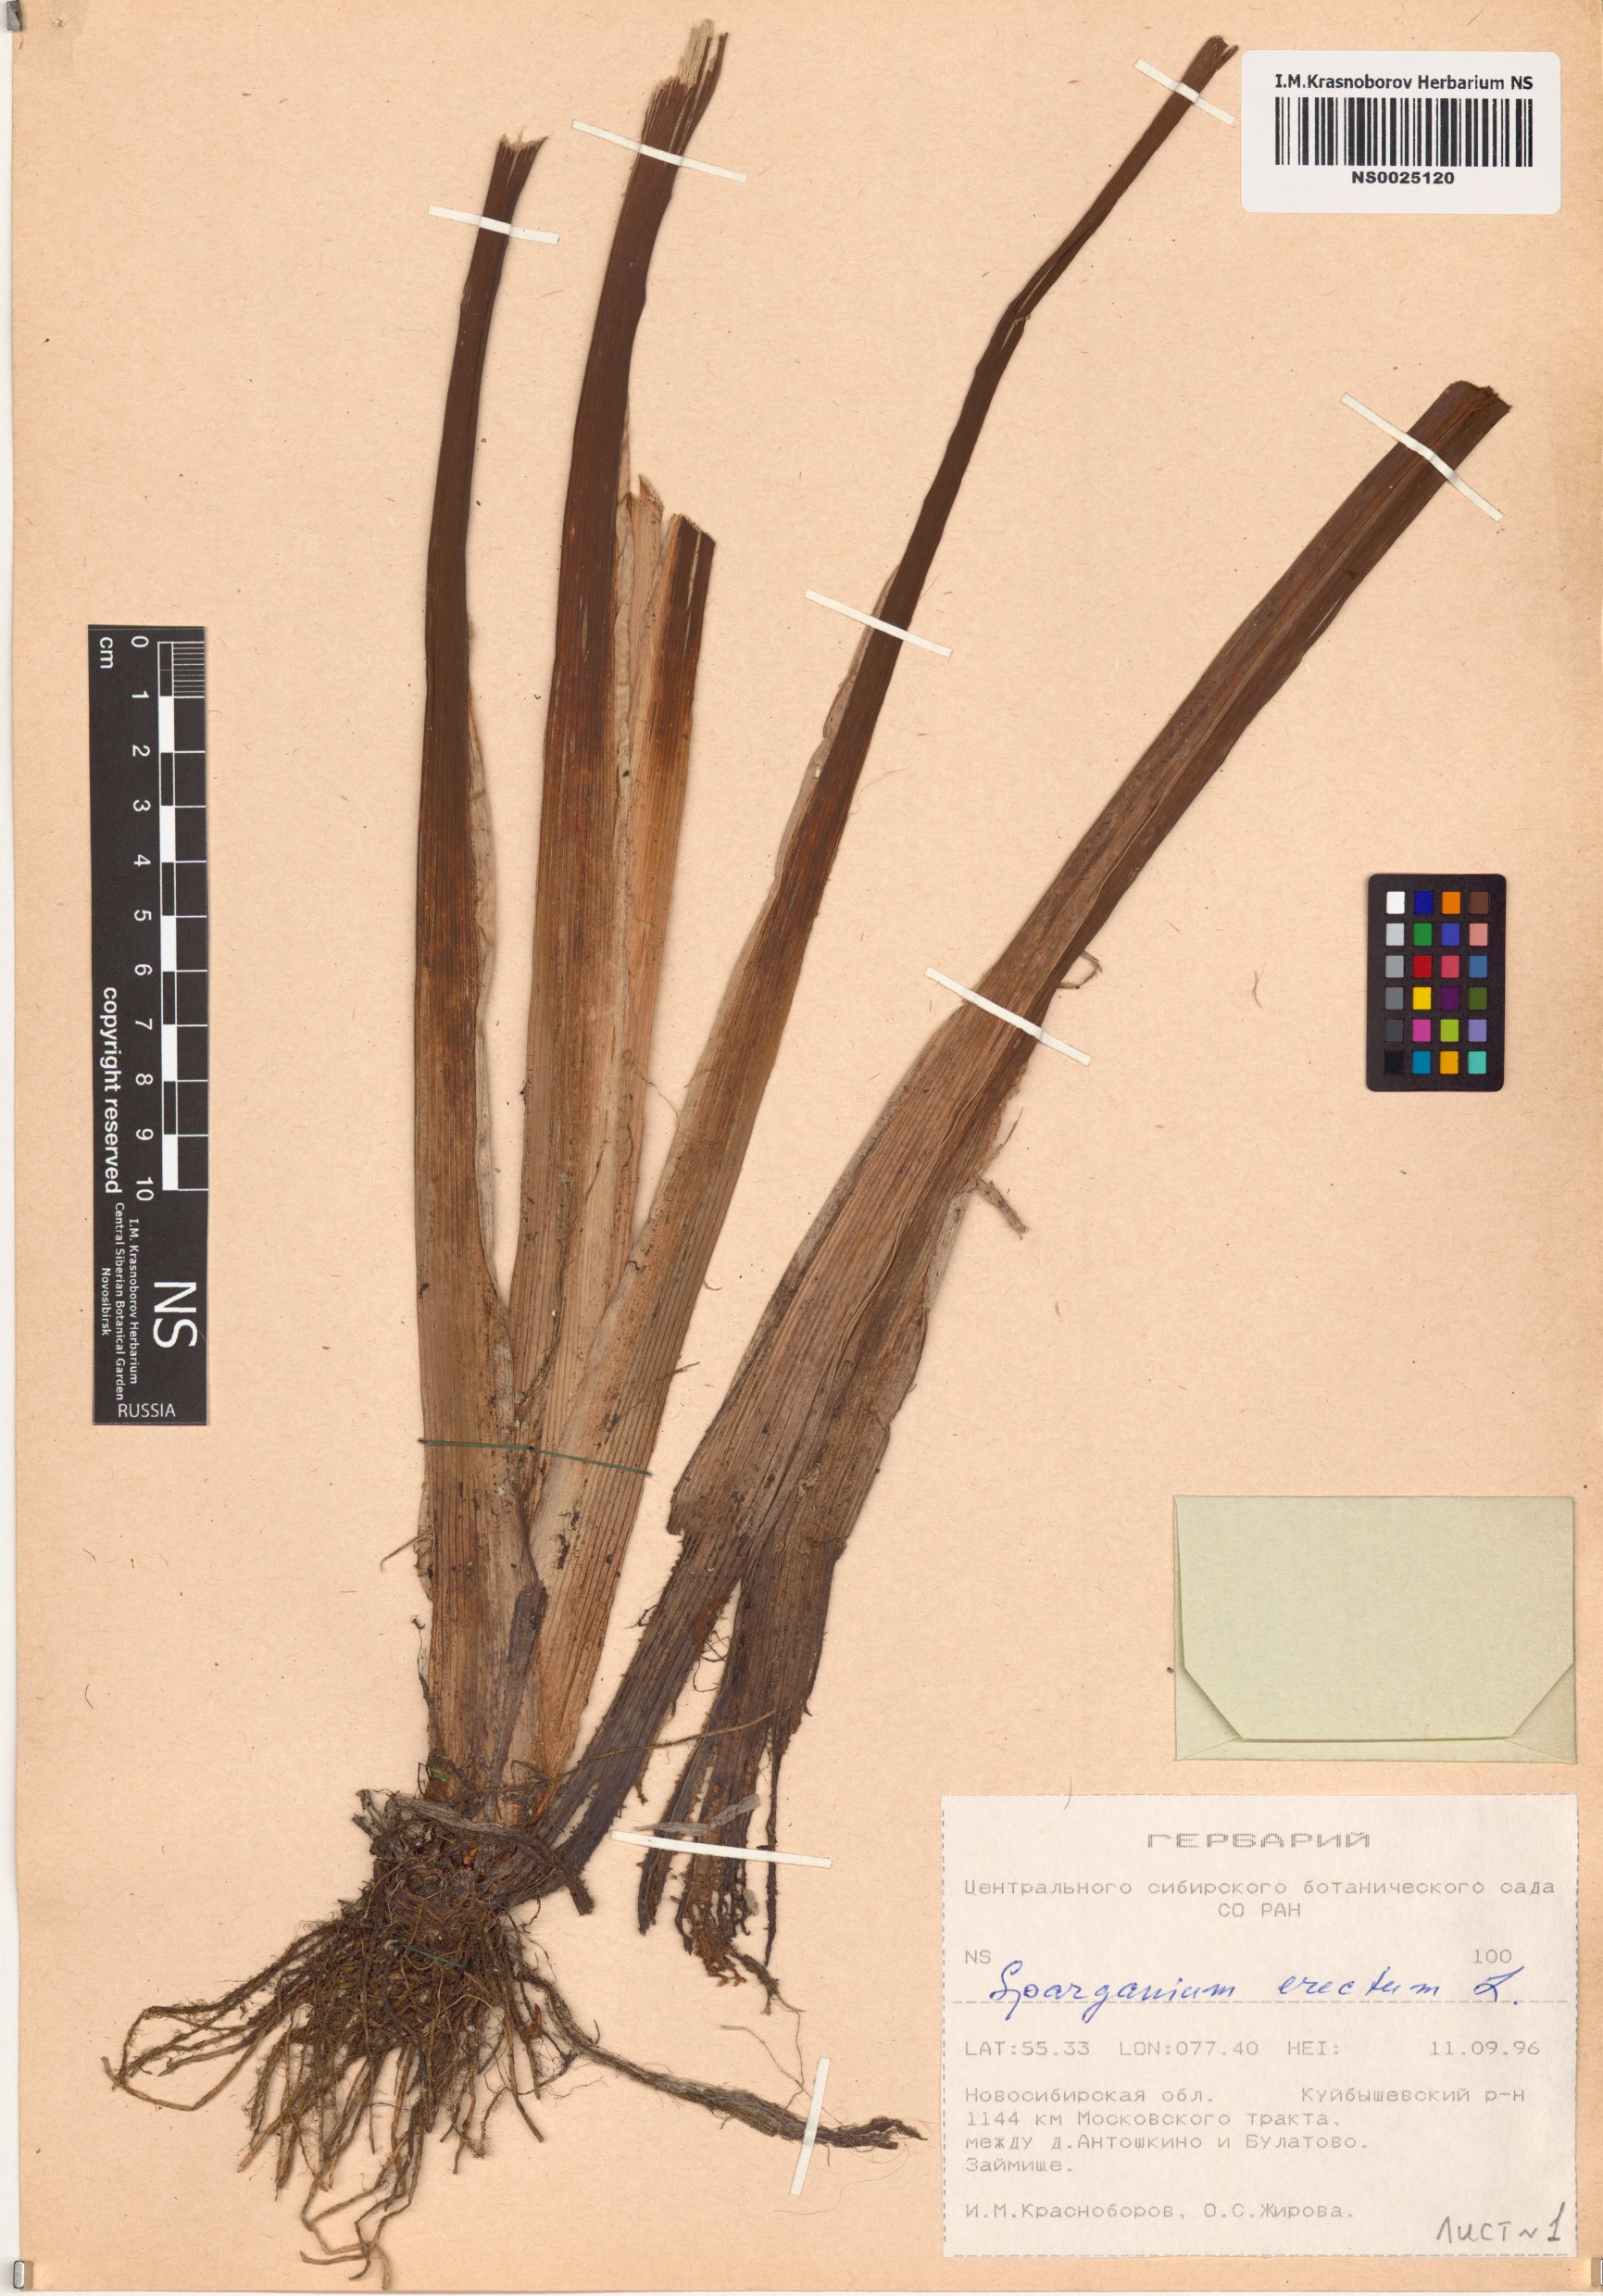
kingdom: Plantae
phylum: Tracheophyta
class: Liliopsida
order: Poales
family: Typhaceae
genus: Sparganium
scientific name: Sparganium erectum
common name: Branched bur-reed
